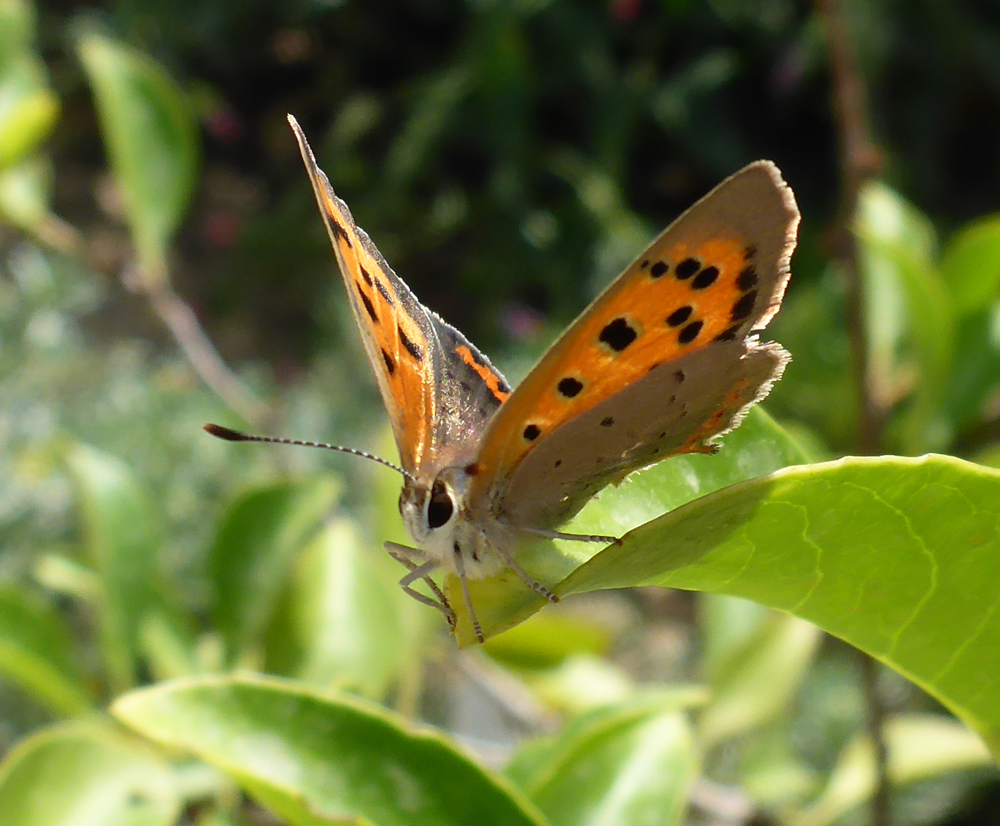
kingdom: Animalia
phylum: Arthropoda
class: Insecta
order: Lepidoptera
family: Lycaenidae
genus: Lycaena
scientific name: Lycaena phlaeas
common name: Small copper
